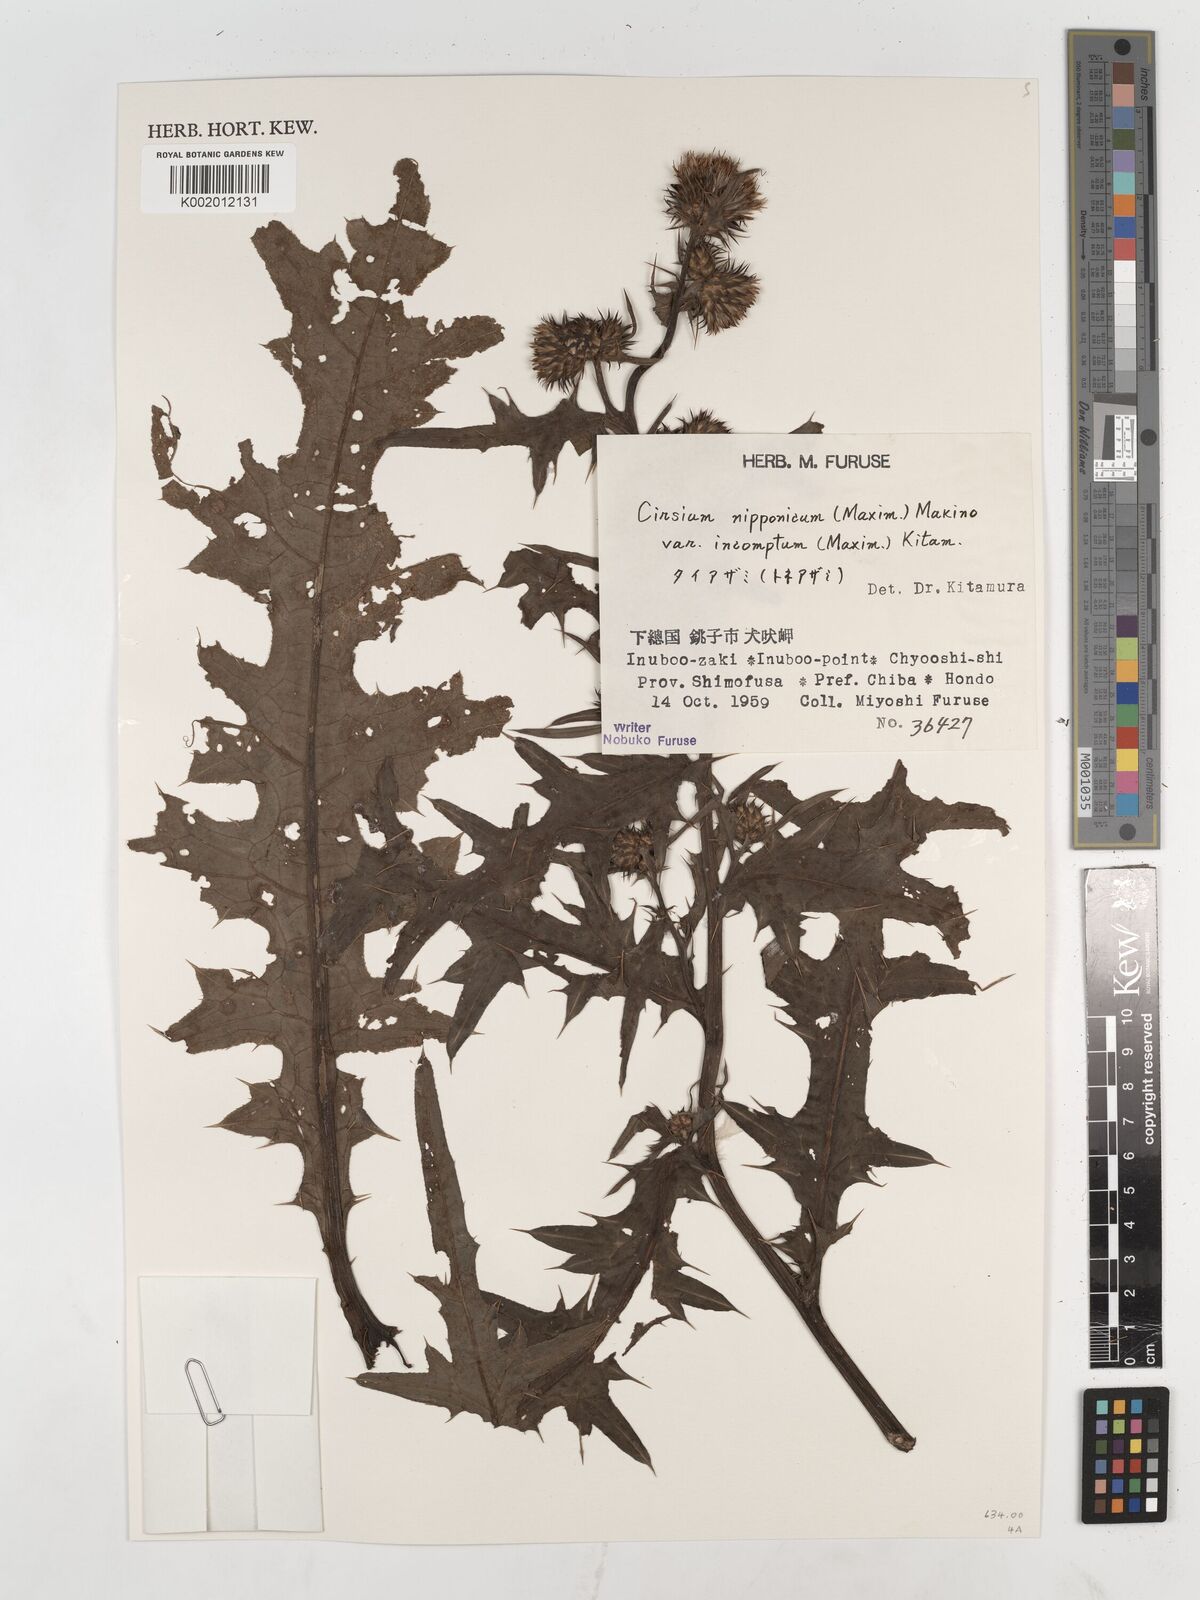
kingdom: Plantae
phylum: Tracheophyta
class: Magnoliopsida
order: Asterales
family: Asteraceae
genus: Cirsium
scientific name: Cirsium nipponicum
